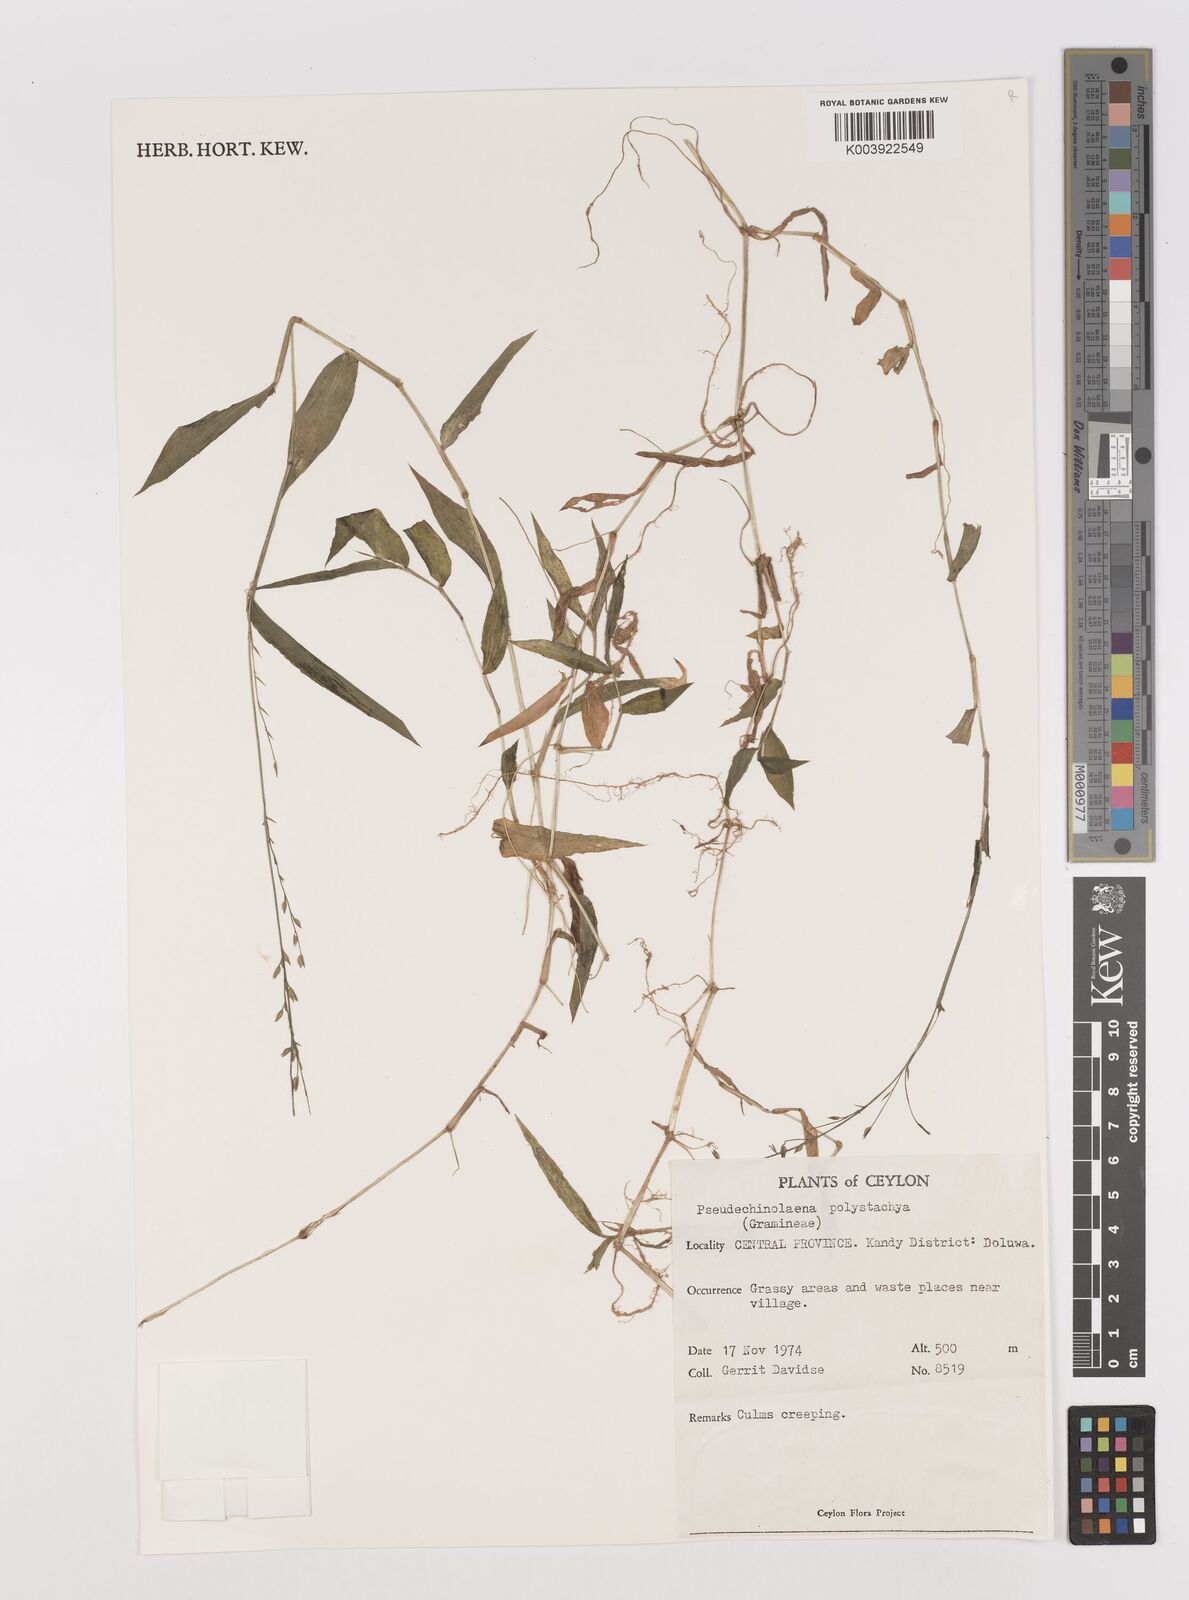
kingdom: Plantae
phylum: Tracheophyta
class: Liliopsida
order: Poales
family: Poaceae
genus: Pseudechinolaena
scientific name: Pseudechinolaena polystachya
